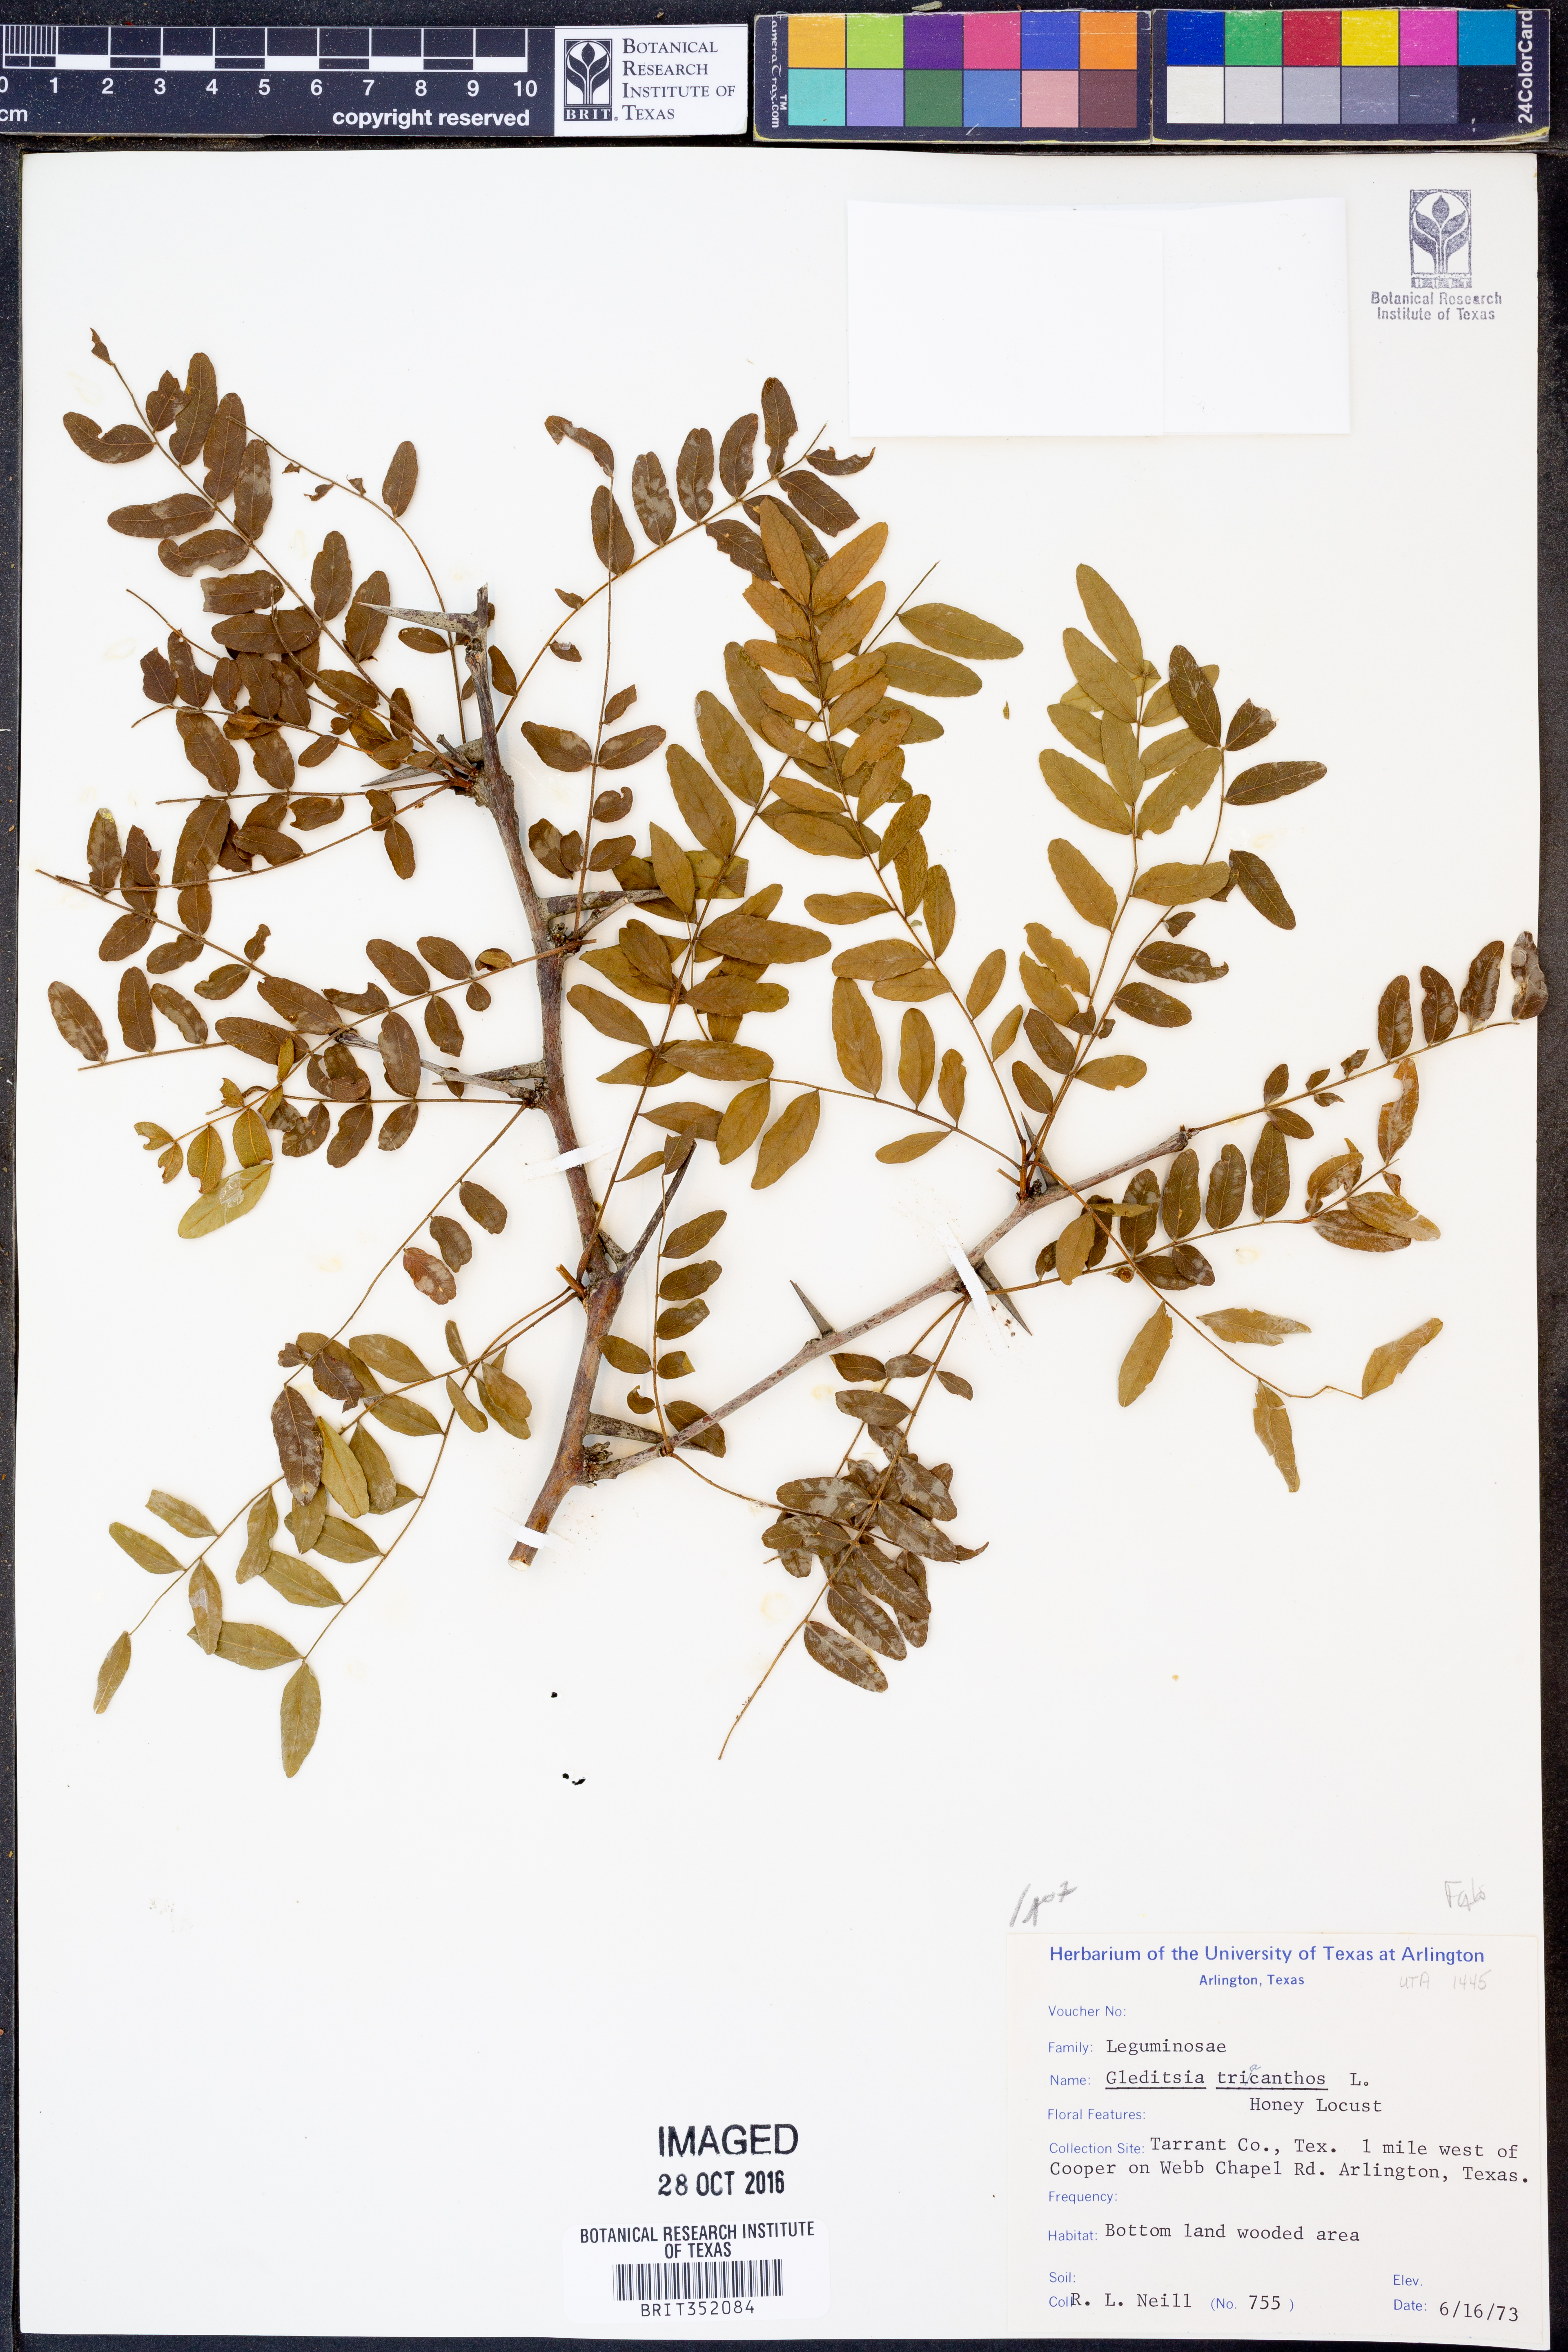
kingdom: Plantae
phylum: Tracheophyta
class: Magnoliopsida
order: Fabales
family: Fabaceae
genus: Gleditsia
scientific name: Gleditsia triacanthos
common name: Common honeylocust
